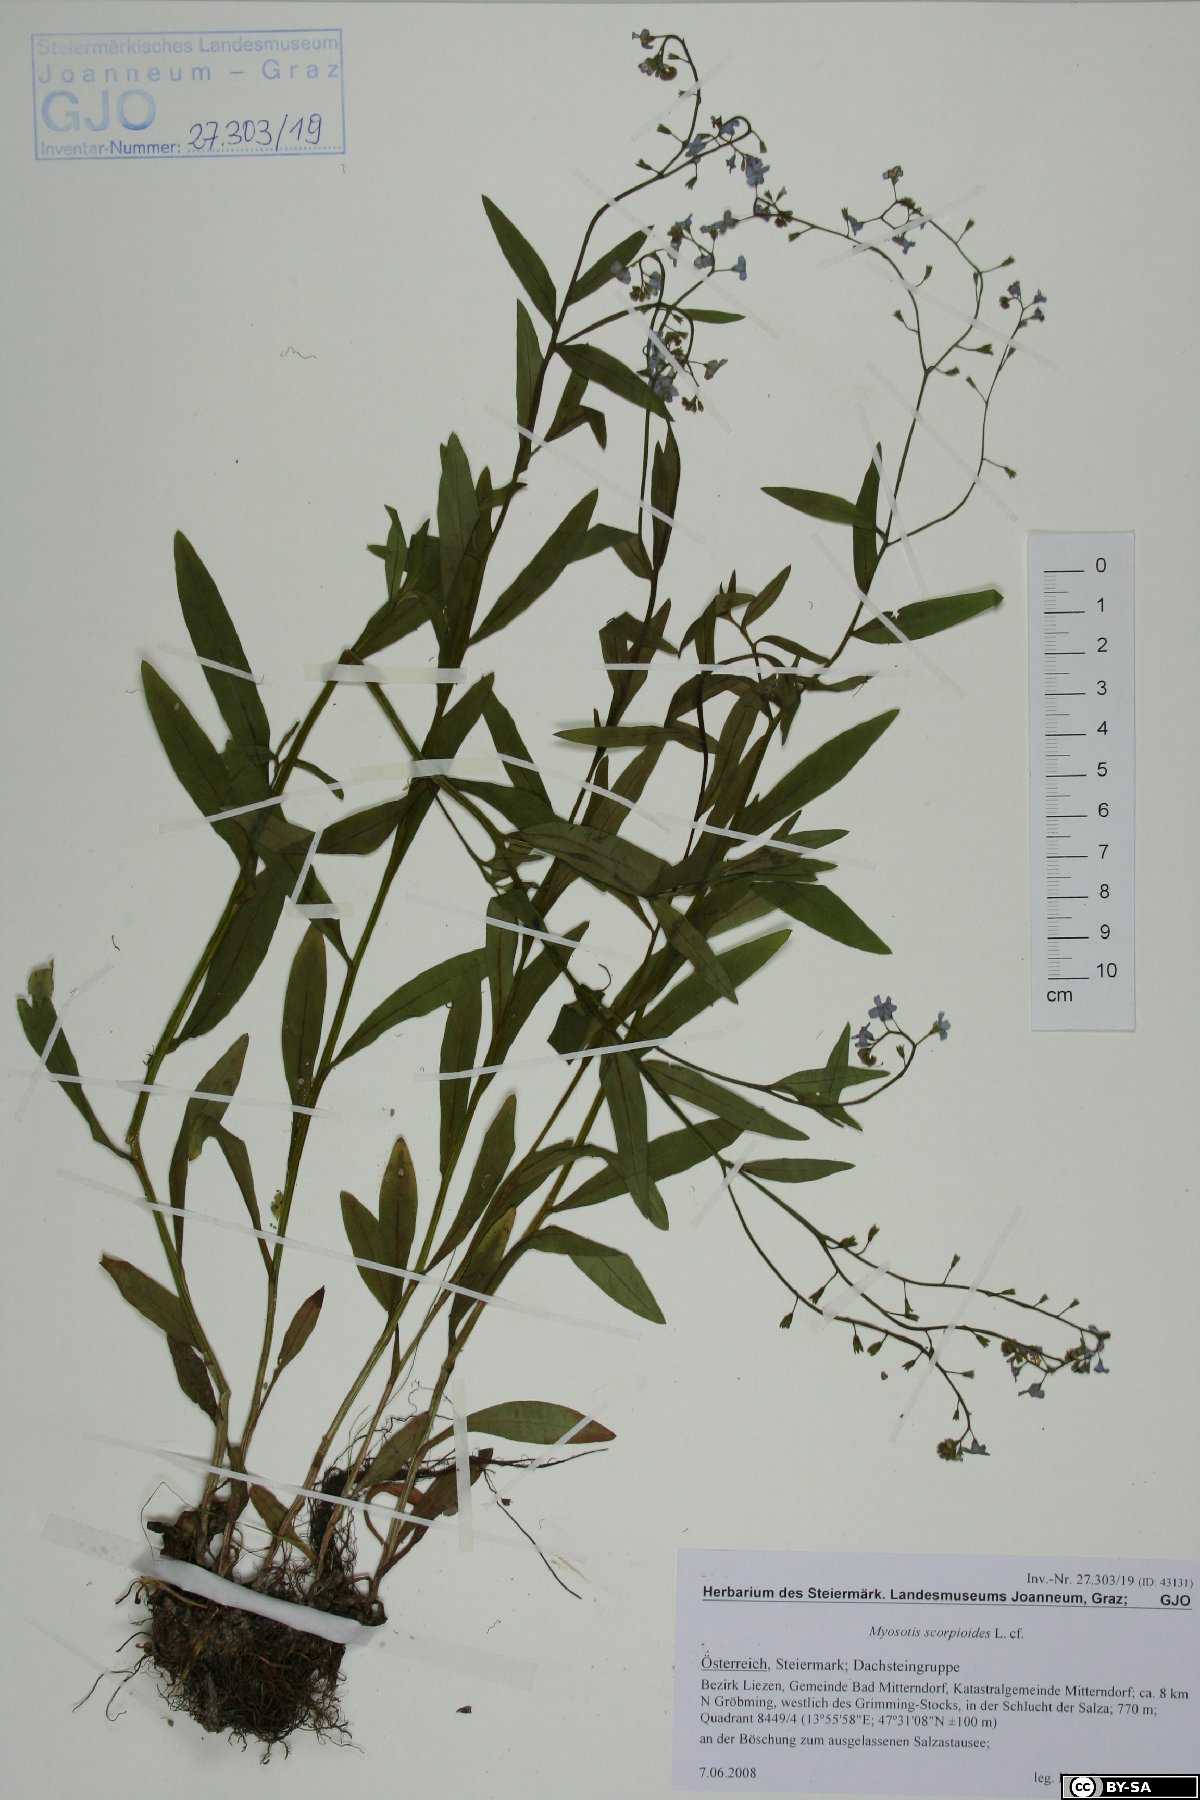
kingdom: Plantae
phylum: Tracheophyta
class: Magnoliopsida
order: Boraginales
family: Boraginaceae
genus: Myosotis
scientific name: Myosotis scorpioides
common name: Water forget-me-not
